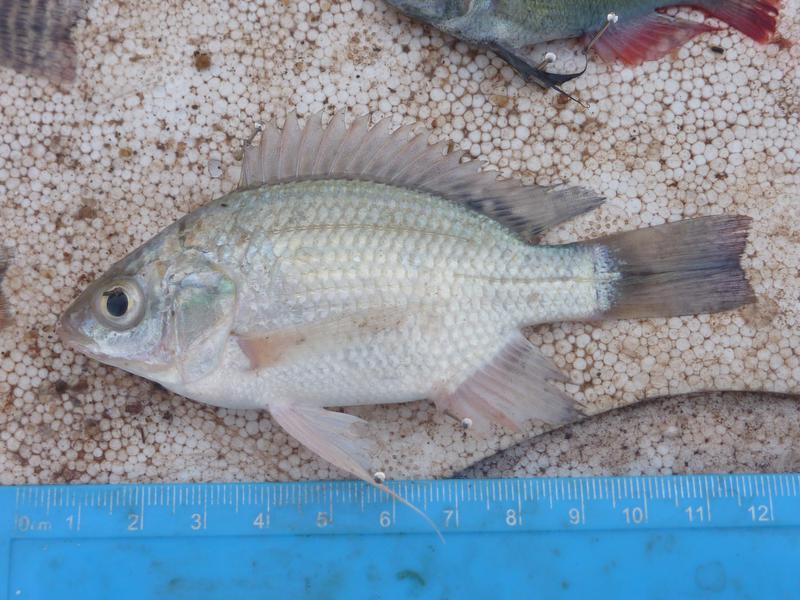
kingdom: Animalia
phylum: Chordata
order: Perciformes
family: Cichlidae
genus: Oreochromis
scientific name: Oreochromis esculentus
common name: Carp
